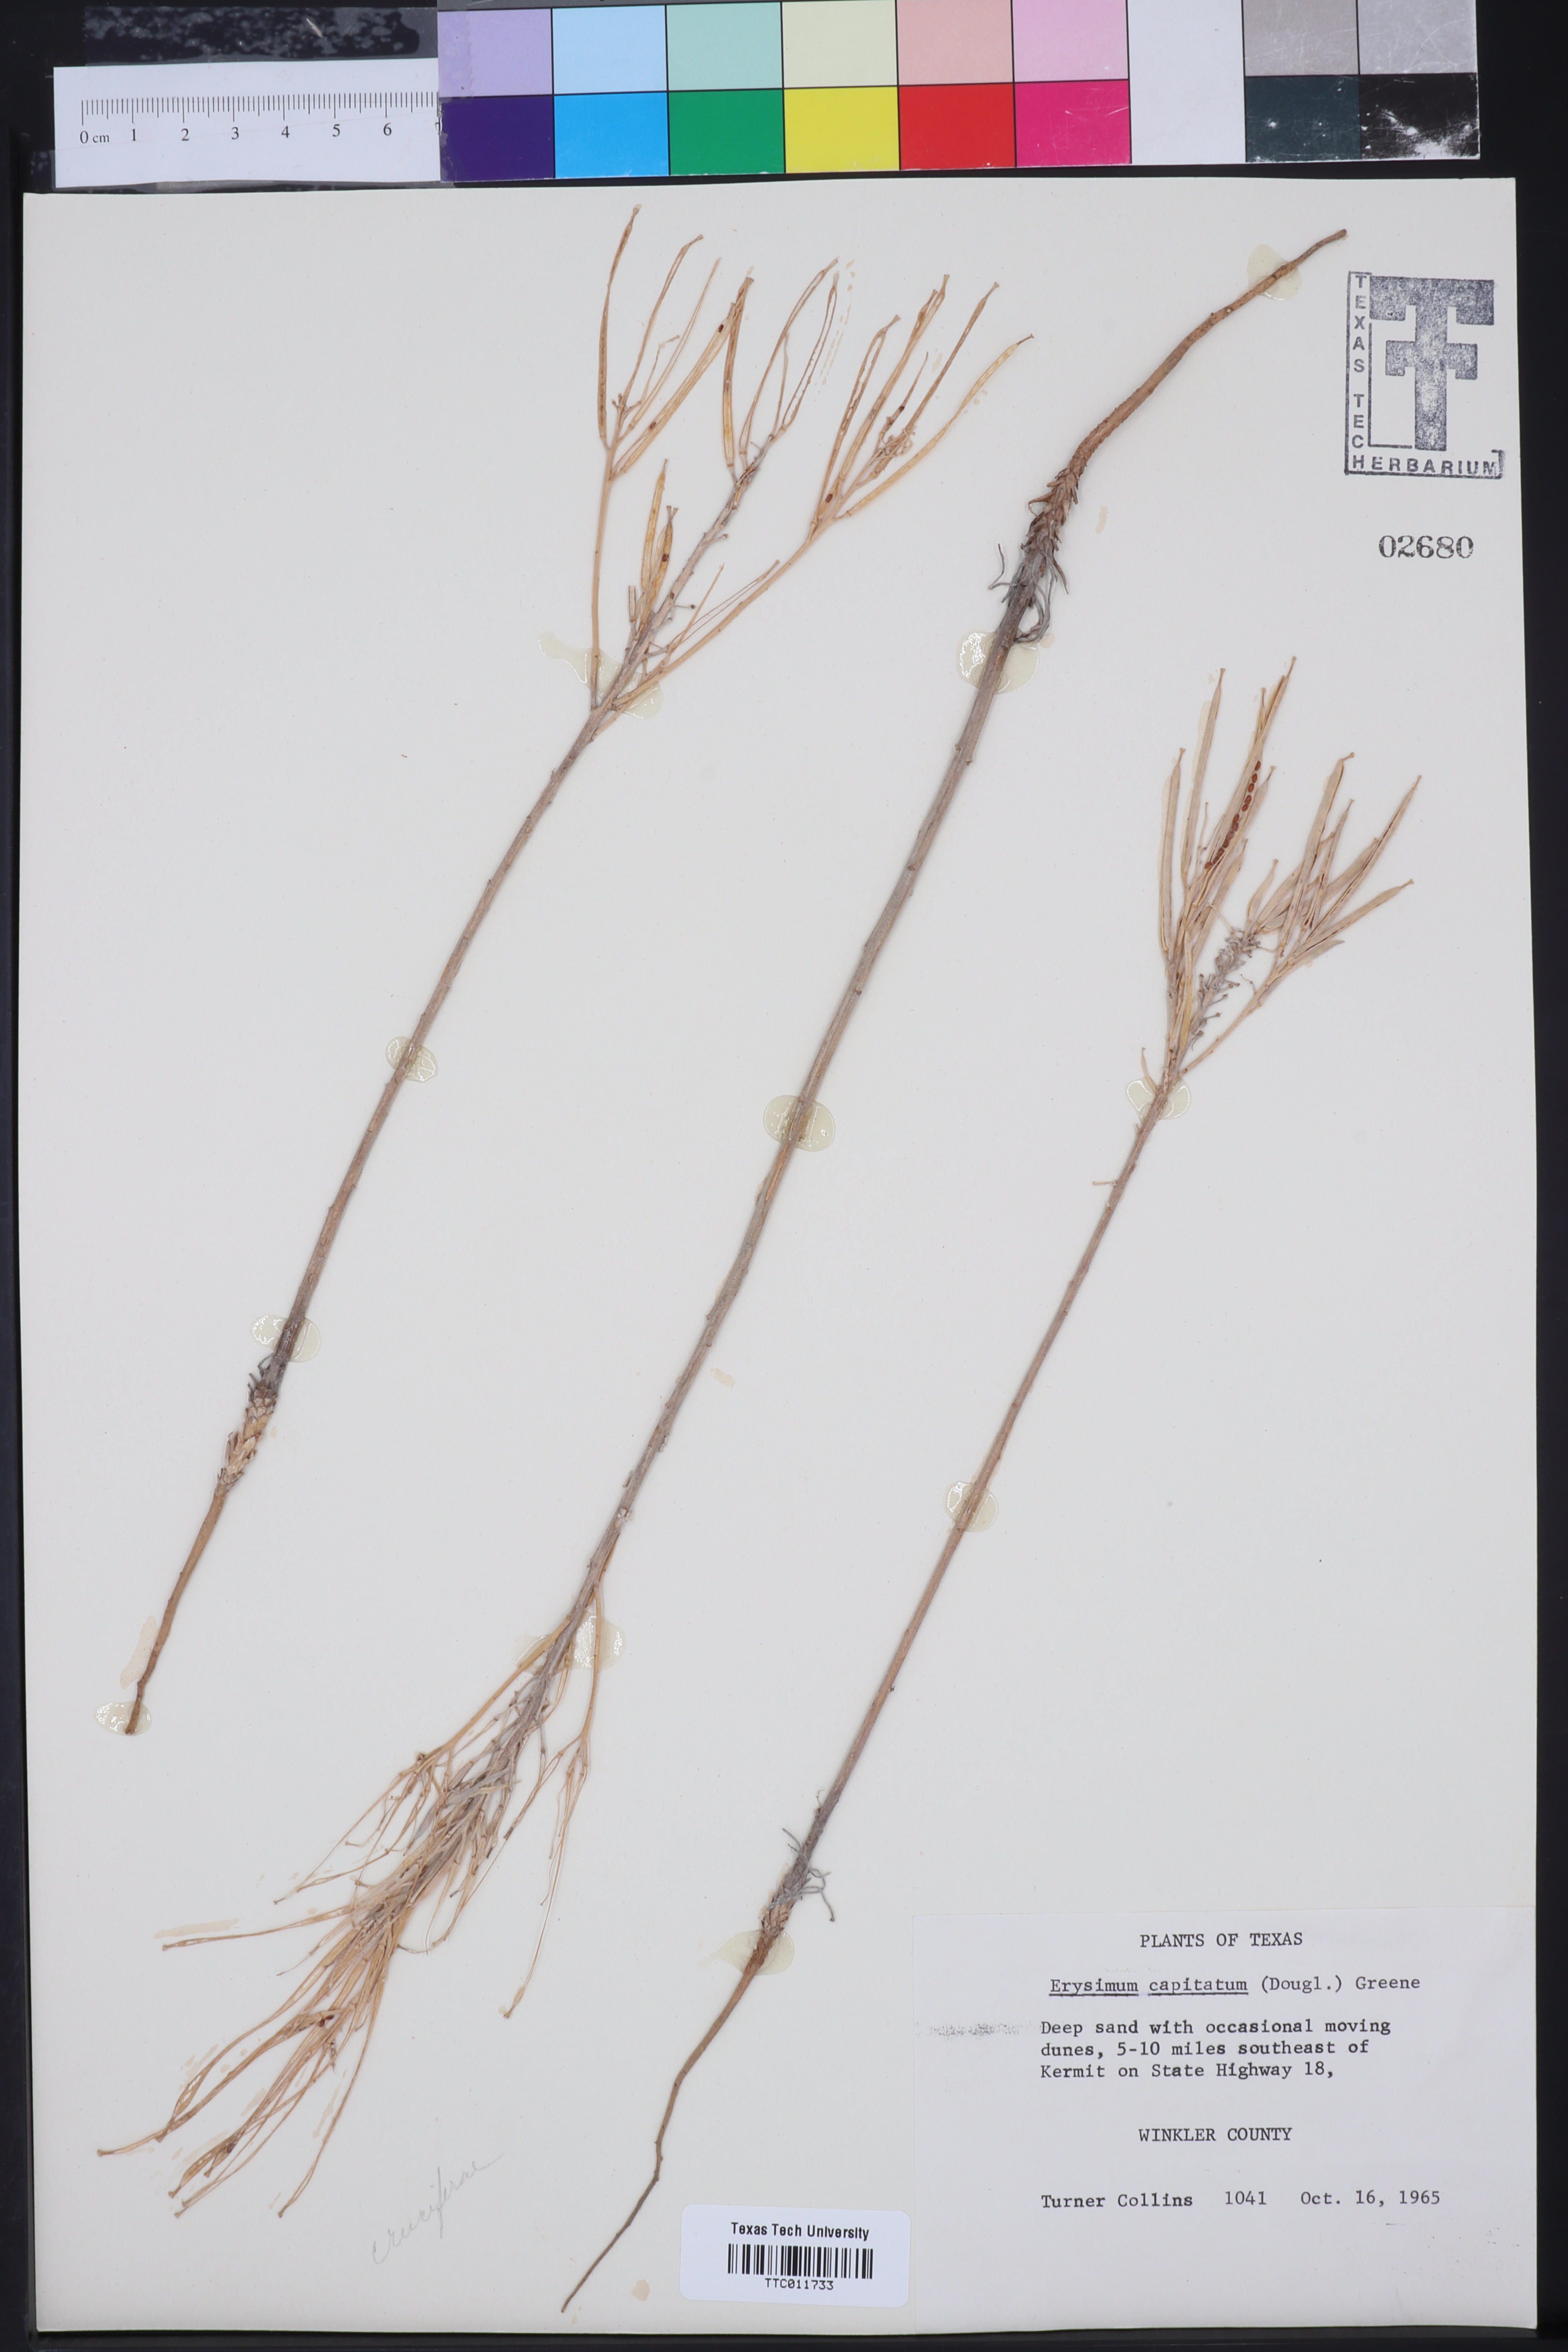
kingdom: Plantae
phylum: Tracheophyta
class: Magnoliopsida
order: Brassicales
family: Brassicaceae
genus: Erysimum
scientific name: Erysimum capitatum
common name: Western wallflower
